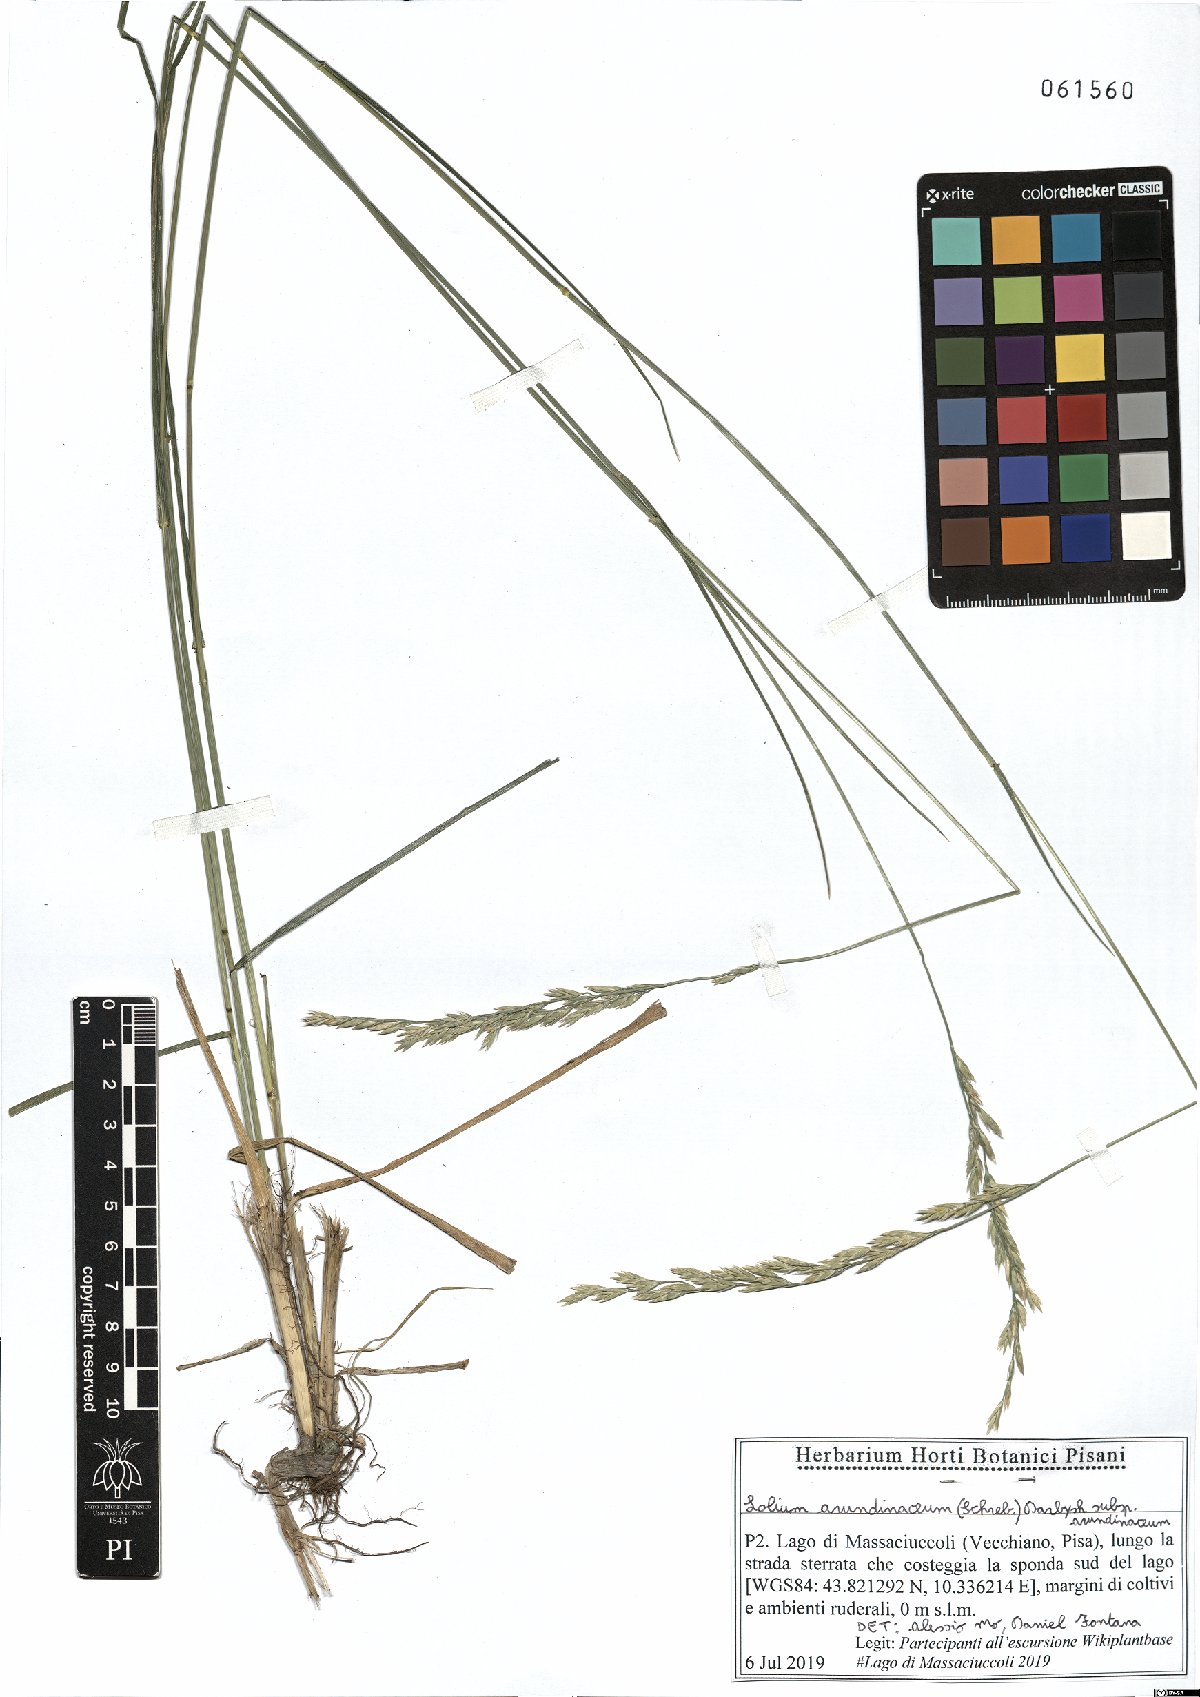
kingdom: Plantae
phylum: Tracheophyta
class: Liliopsida
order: Poales
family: Poaceae
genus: Lolium
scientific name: Lolium arundinaceum
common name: Reed fescue
